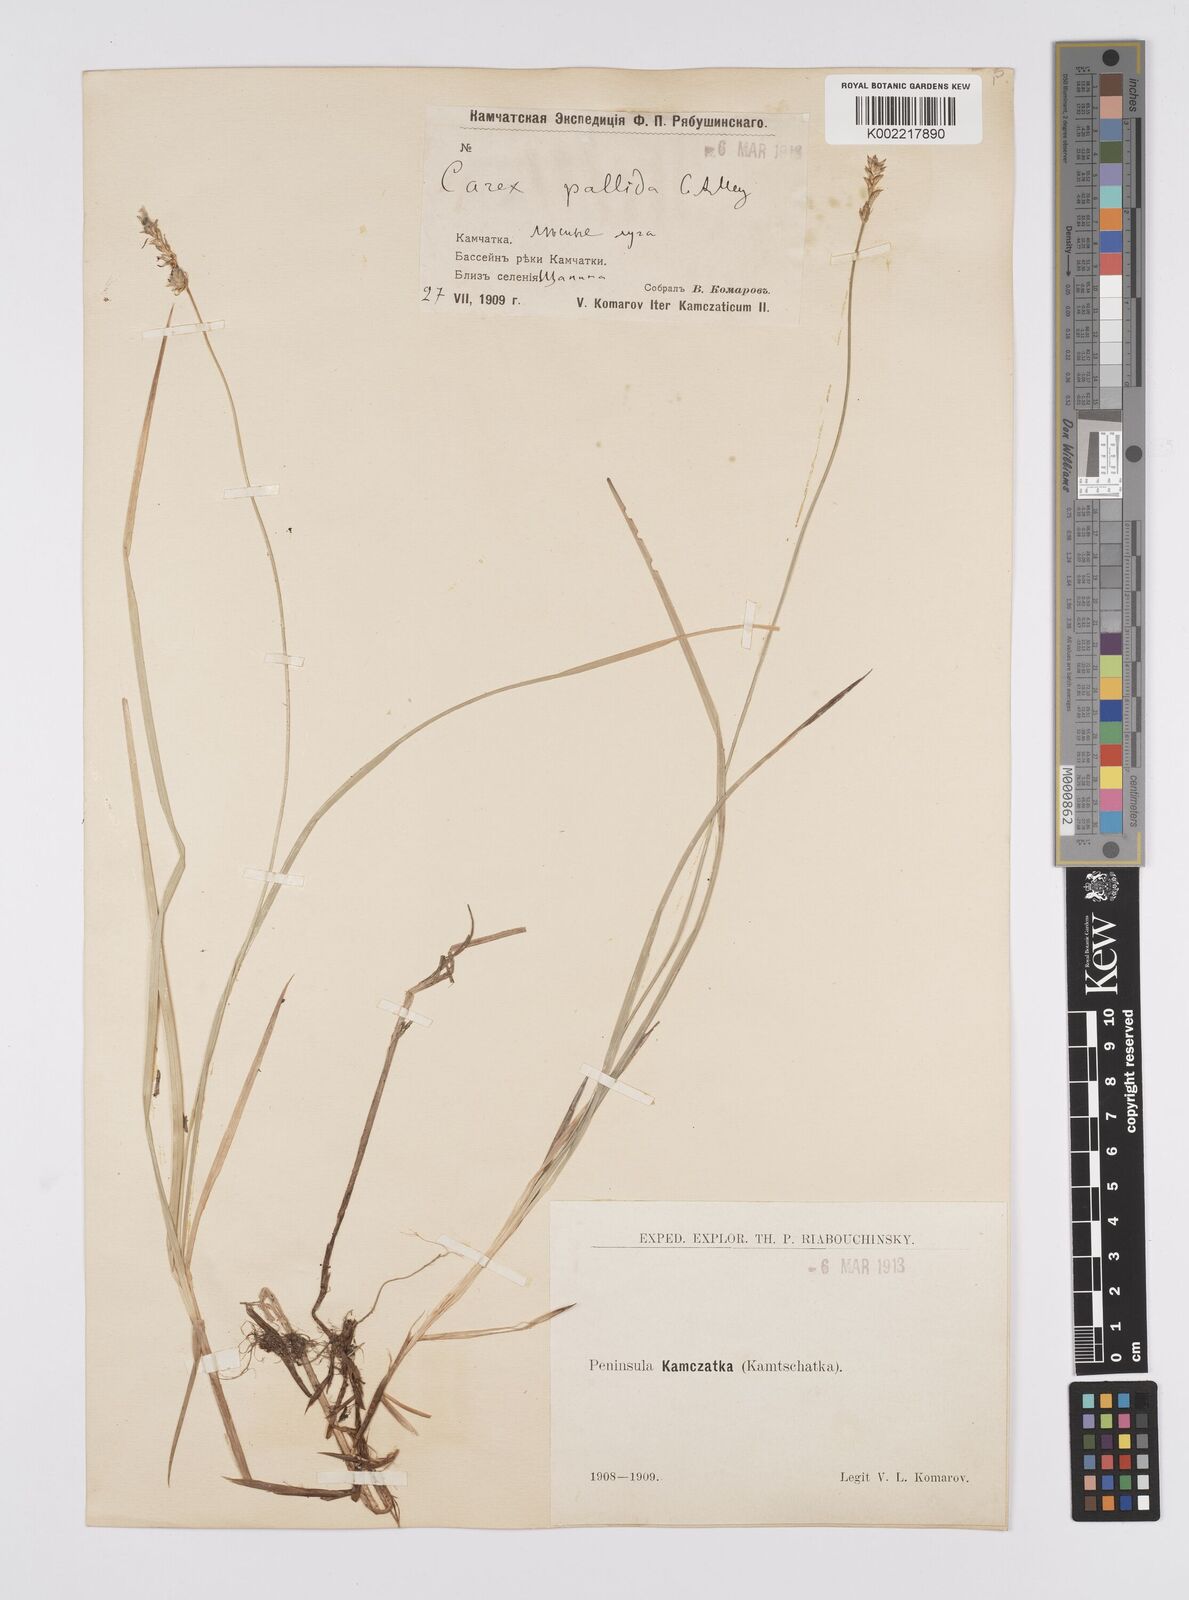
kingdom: Plantae
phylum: Tracheophyta
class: Liliopsida
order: Poales
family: Cyperaceae
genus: Carex
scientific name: Carex accrescens
